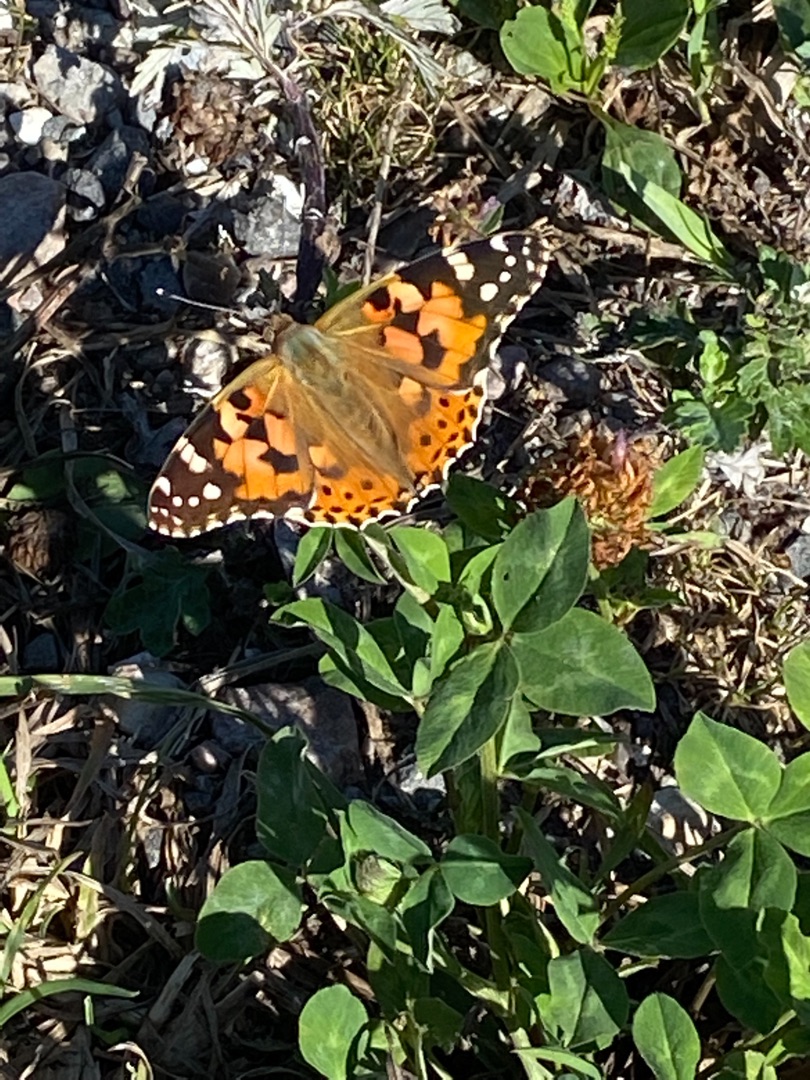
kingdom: Animalia
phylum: Arthropoda
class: Insecta
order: Lepidoptera
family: Nymphalidae
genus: Vanessa
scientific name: Vanessa cardui
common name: Tidselsommerfugl
